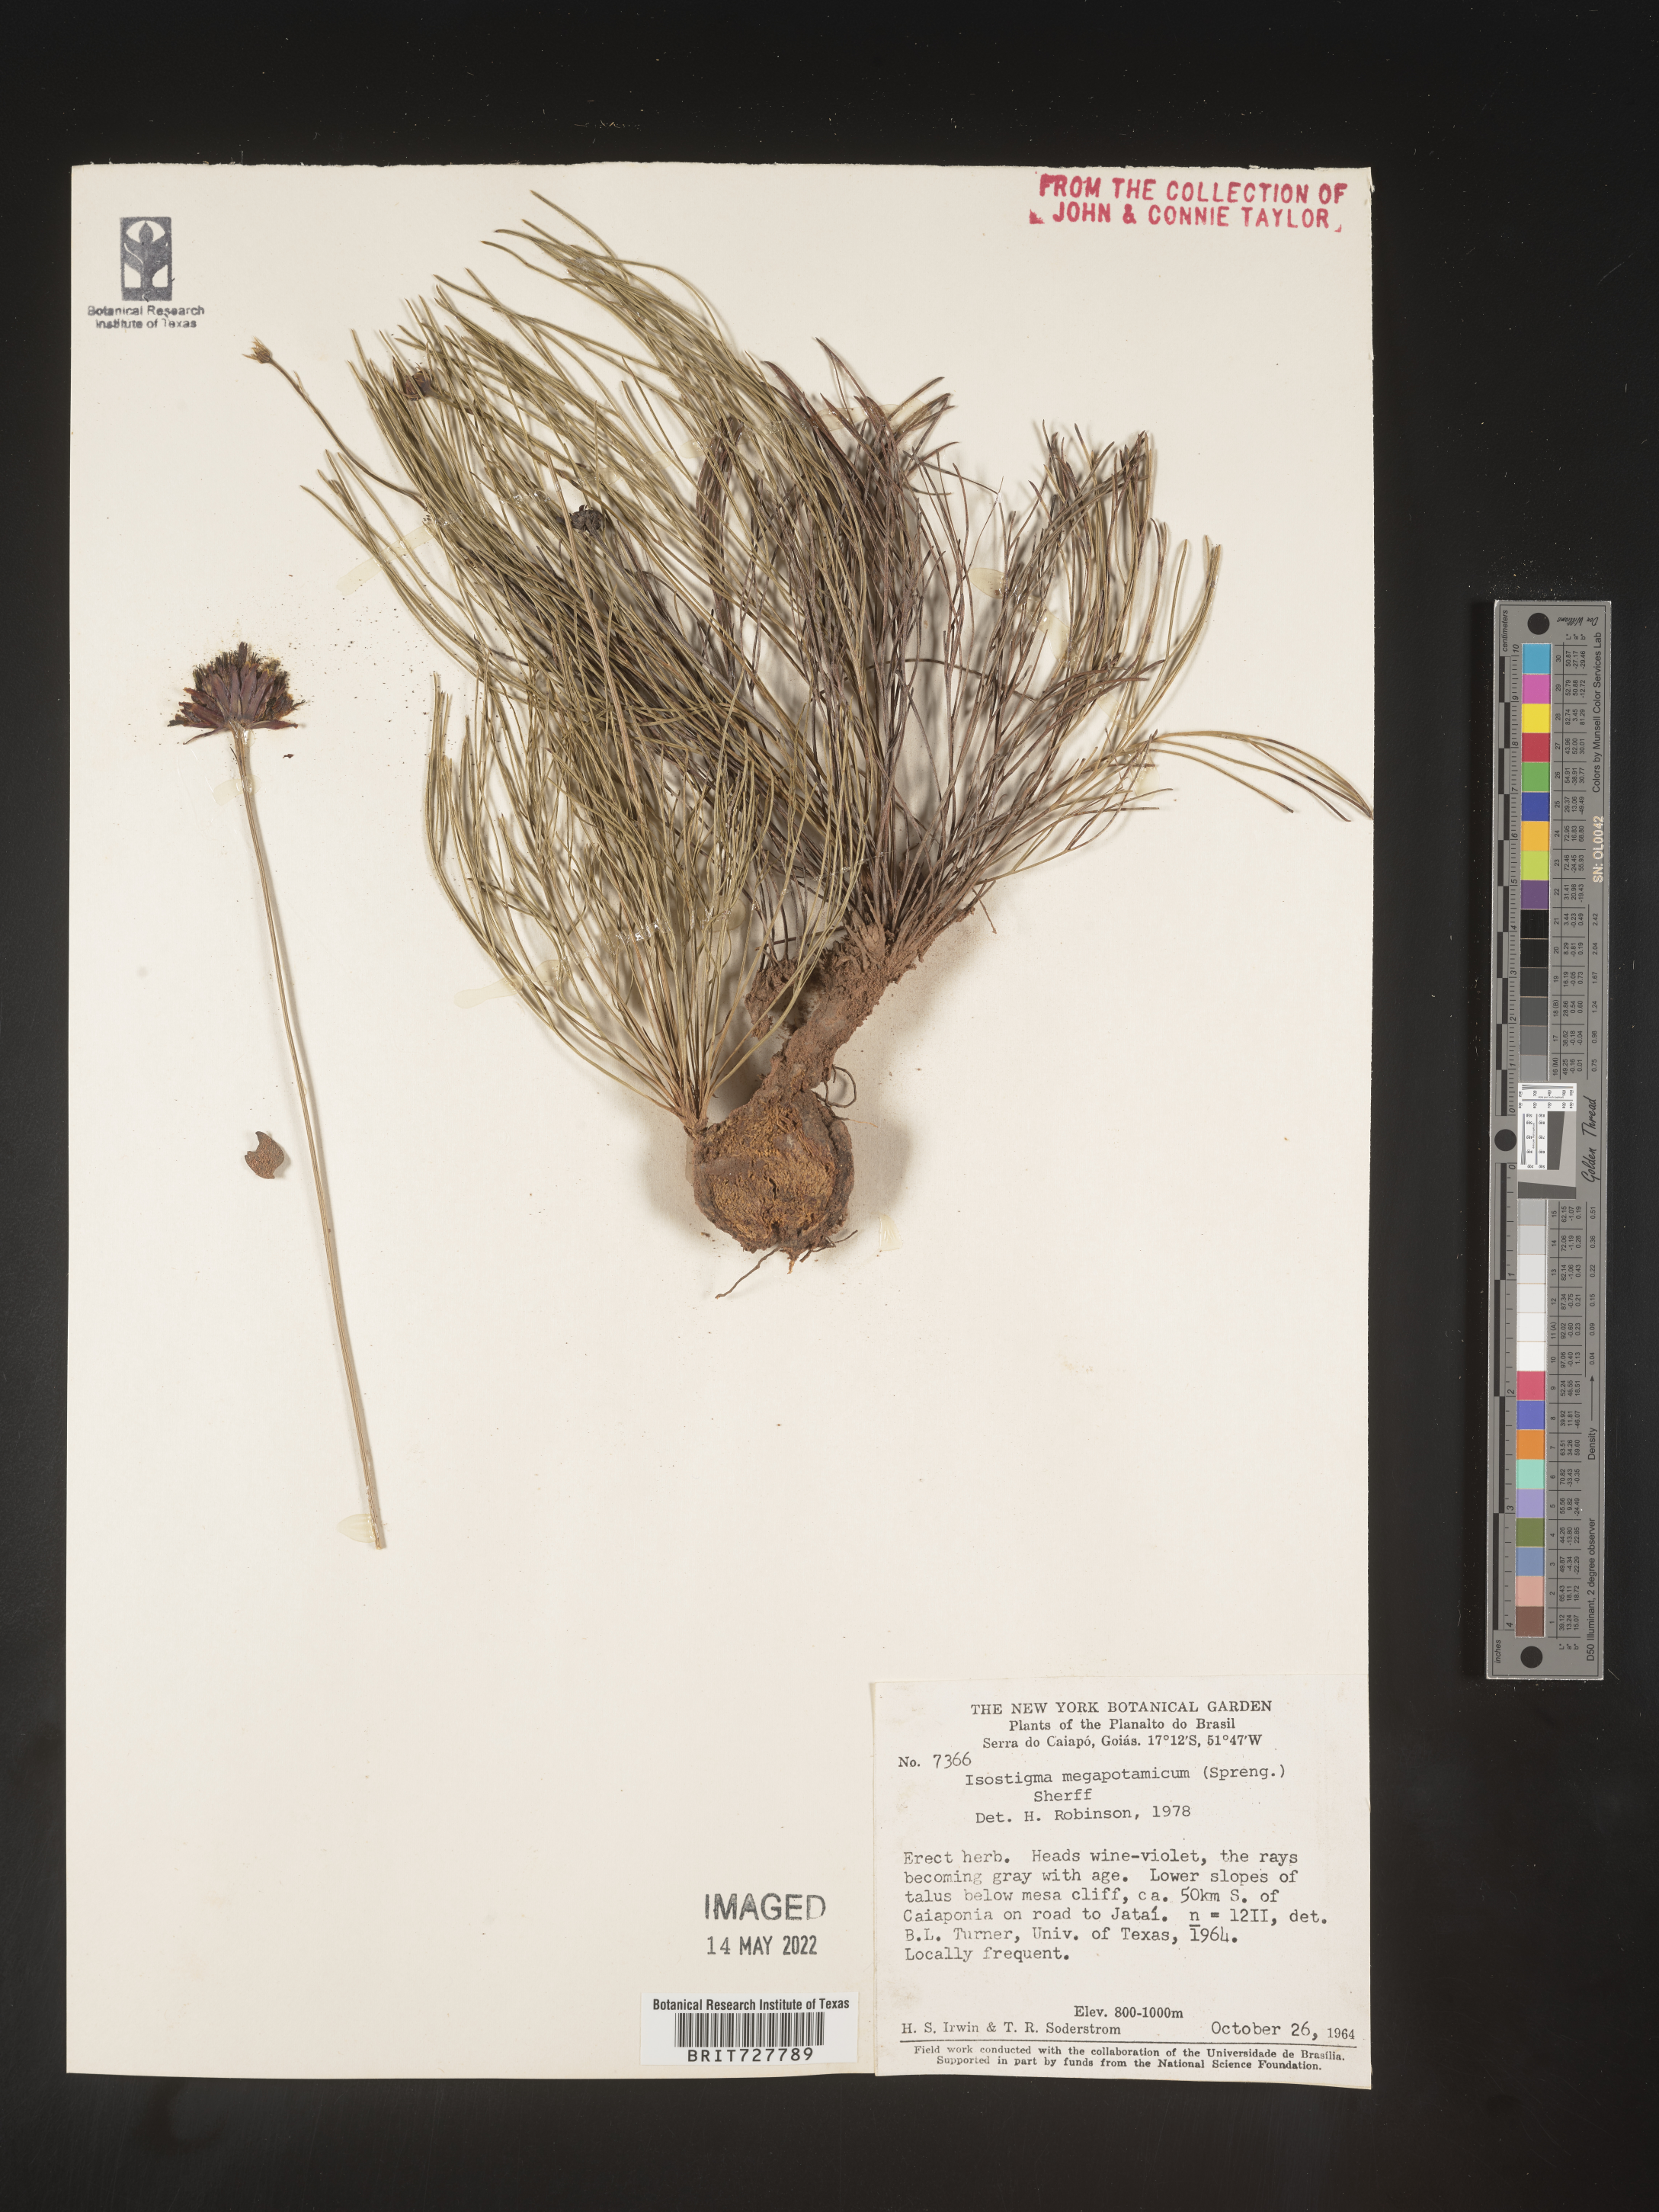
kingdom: Plantae
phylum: Tracheophyta
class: Magnoliopsida
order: Asterales
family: Asteraceae
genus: Isostigma
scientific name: Isostigma
